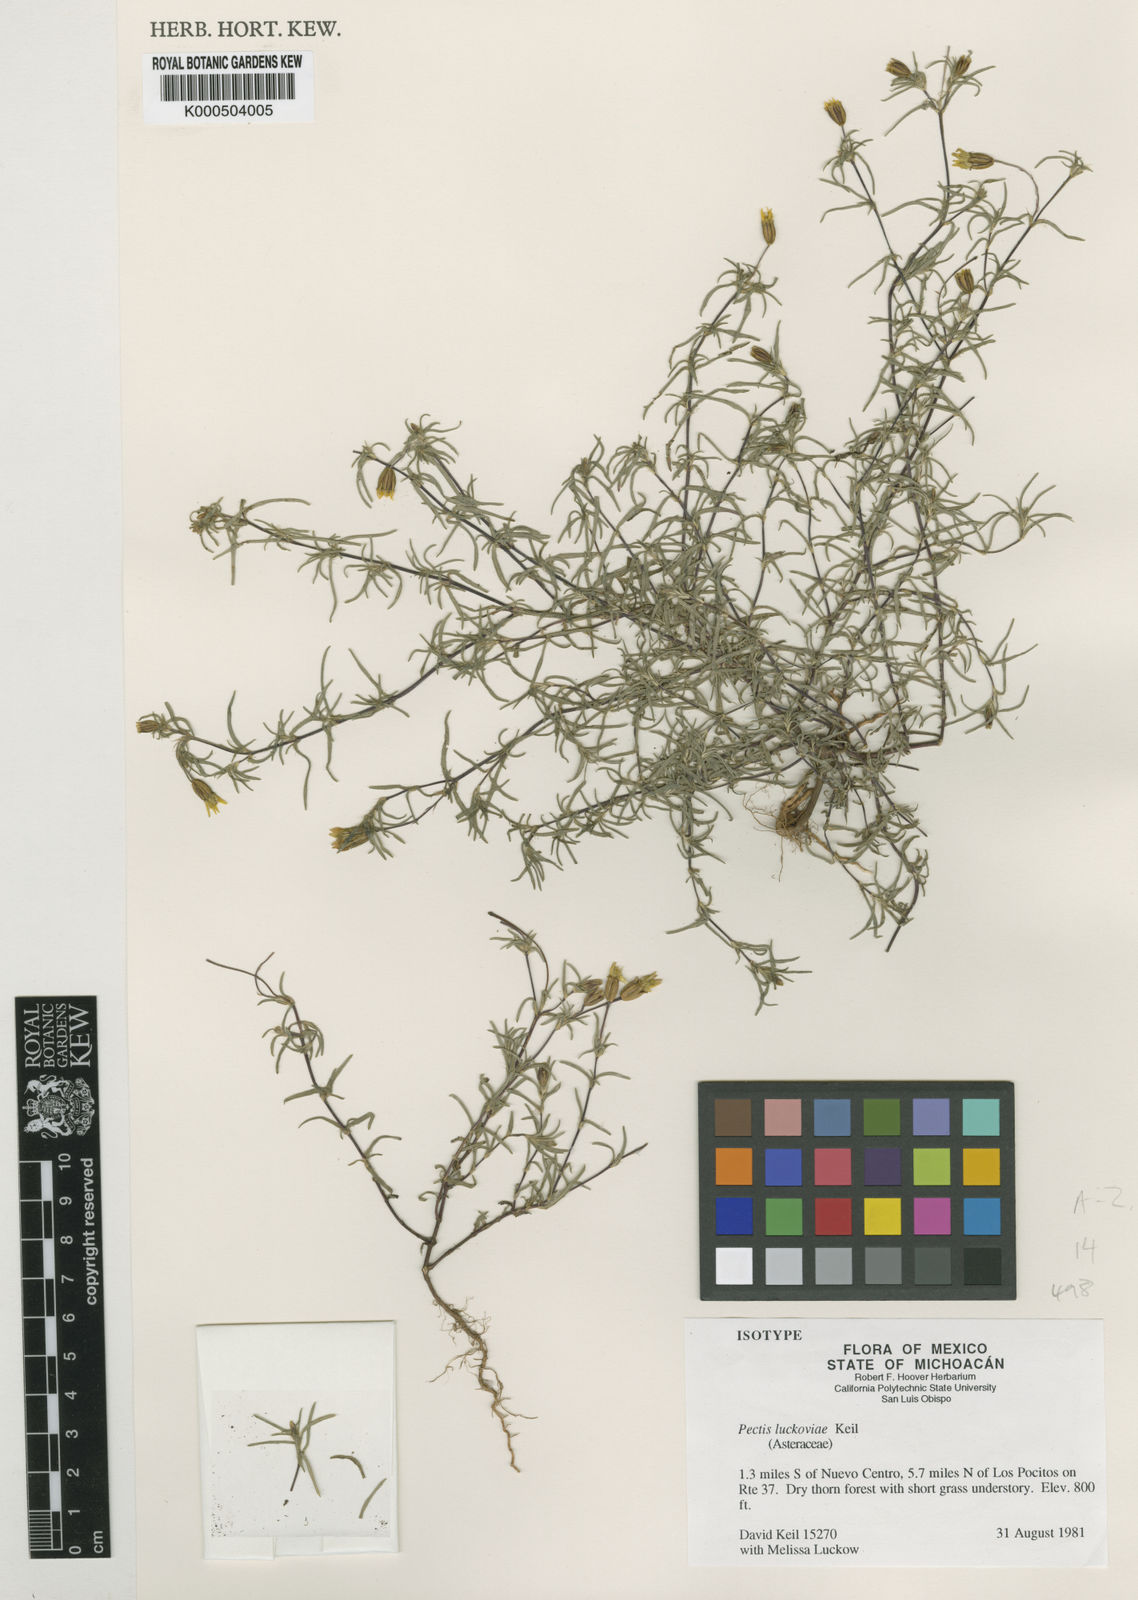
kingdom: Plantae
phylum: Tracheophyta
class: Magnoliopsida
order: Asterales
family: Asteraceae
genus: Pectis
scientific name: Pectis luckoviae
